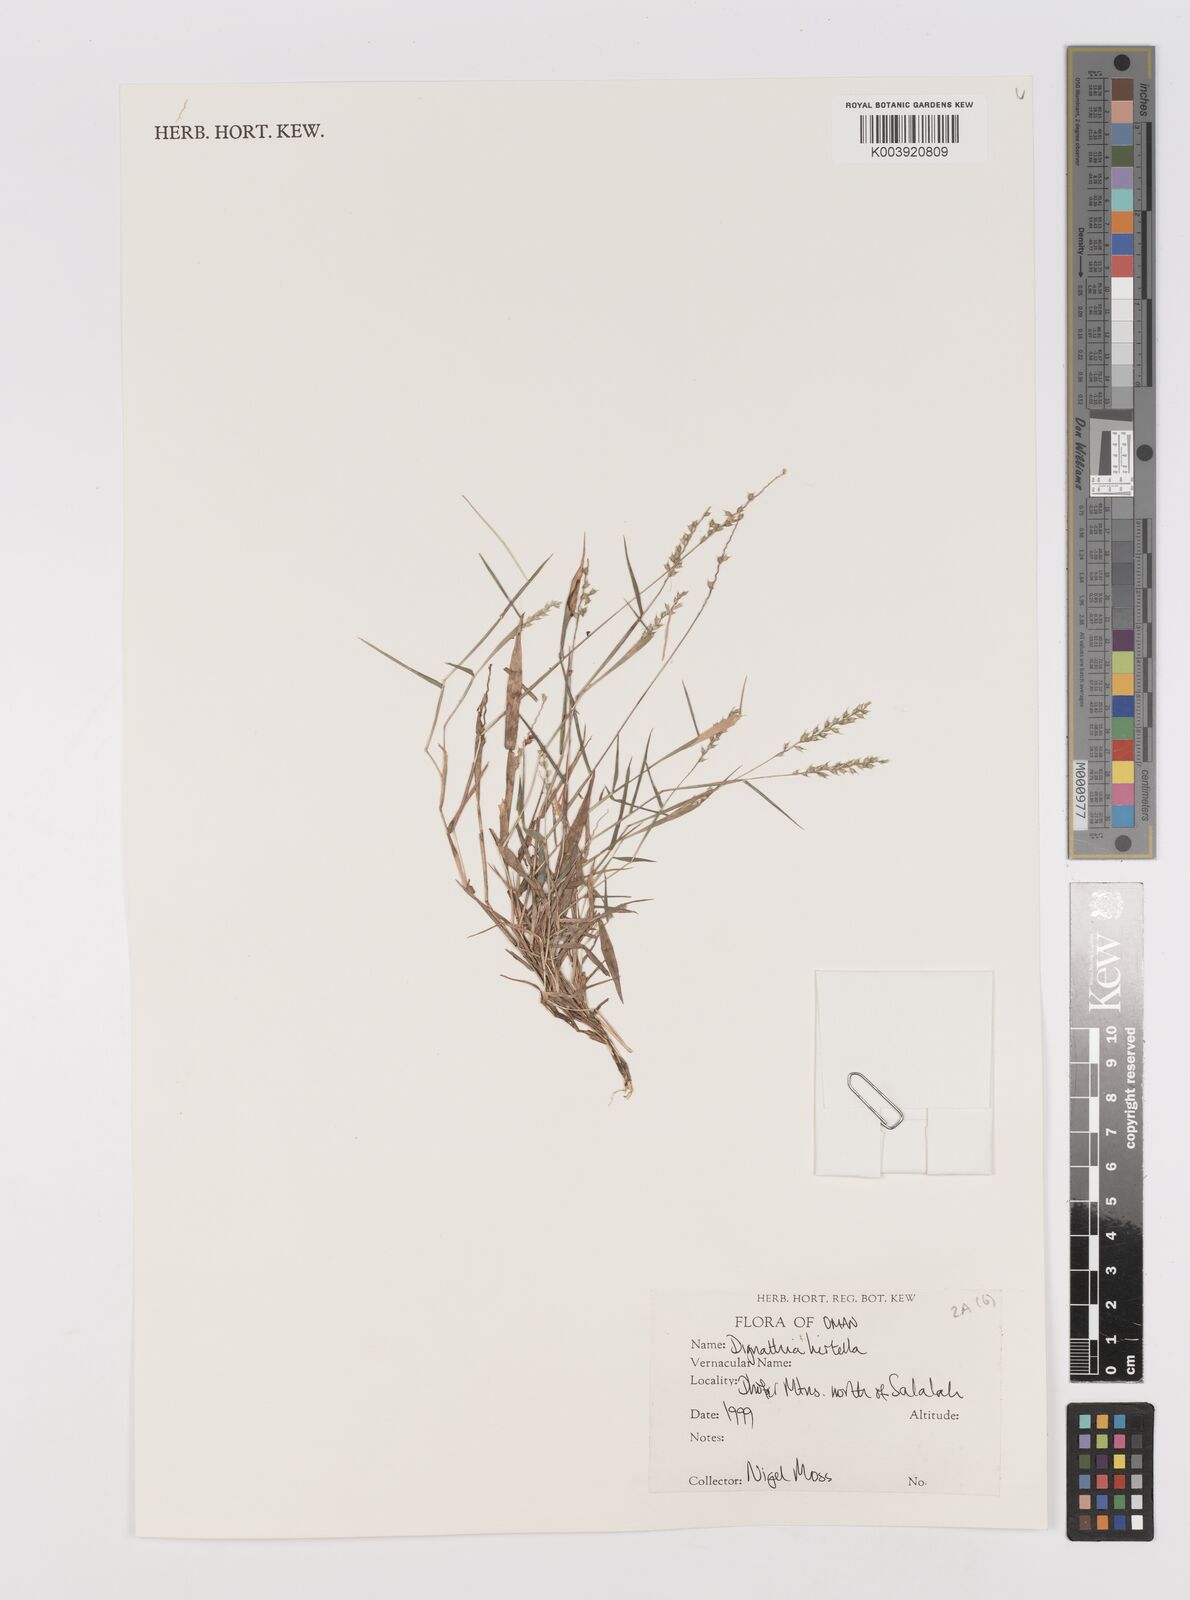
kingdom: Plantae
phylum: Tracheophyta
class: Liliopsida
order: Poales
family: Poaceae
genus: Dignathia
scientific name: Dignathia hirtella
